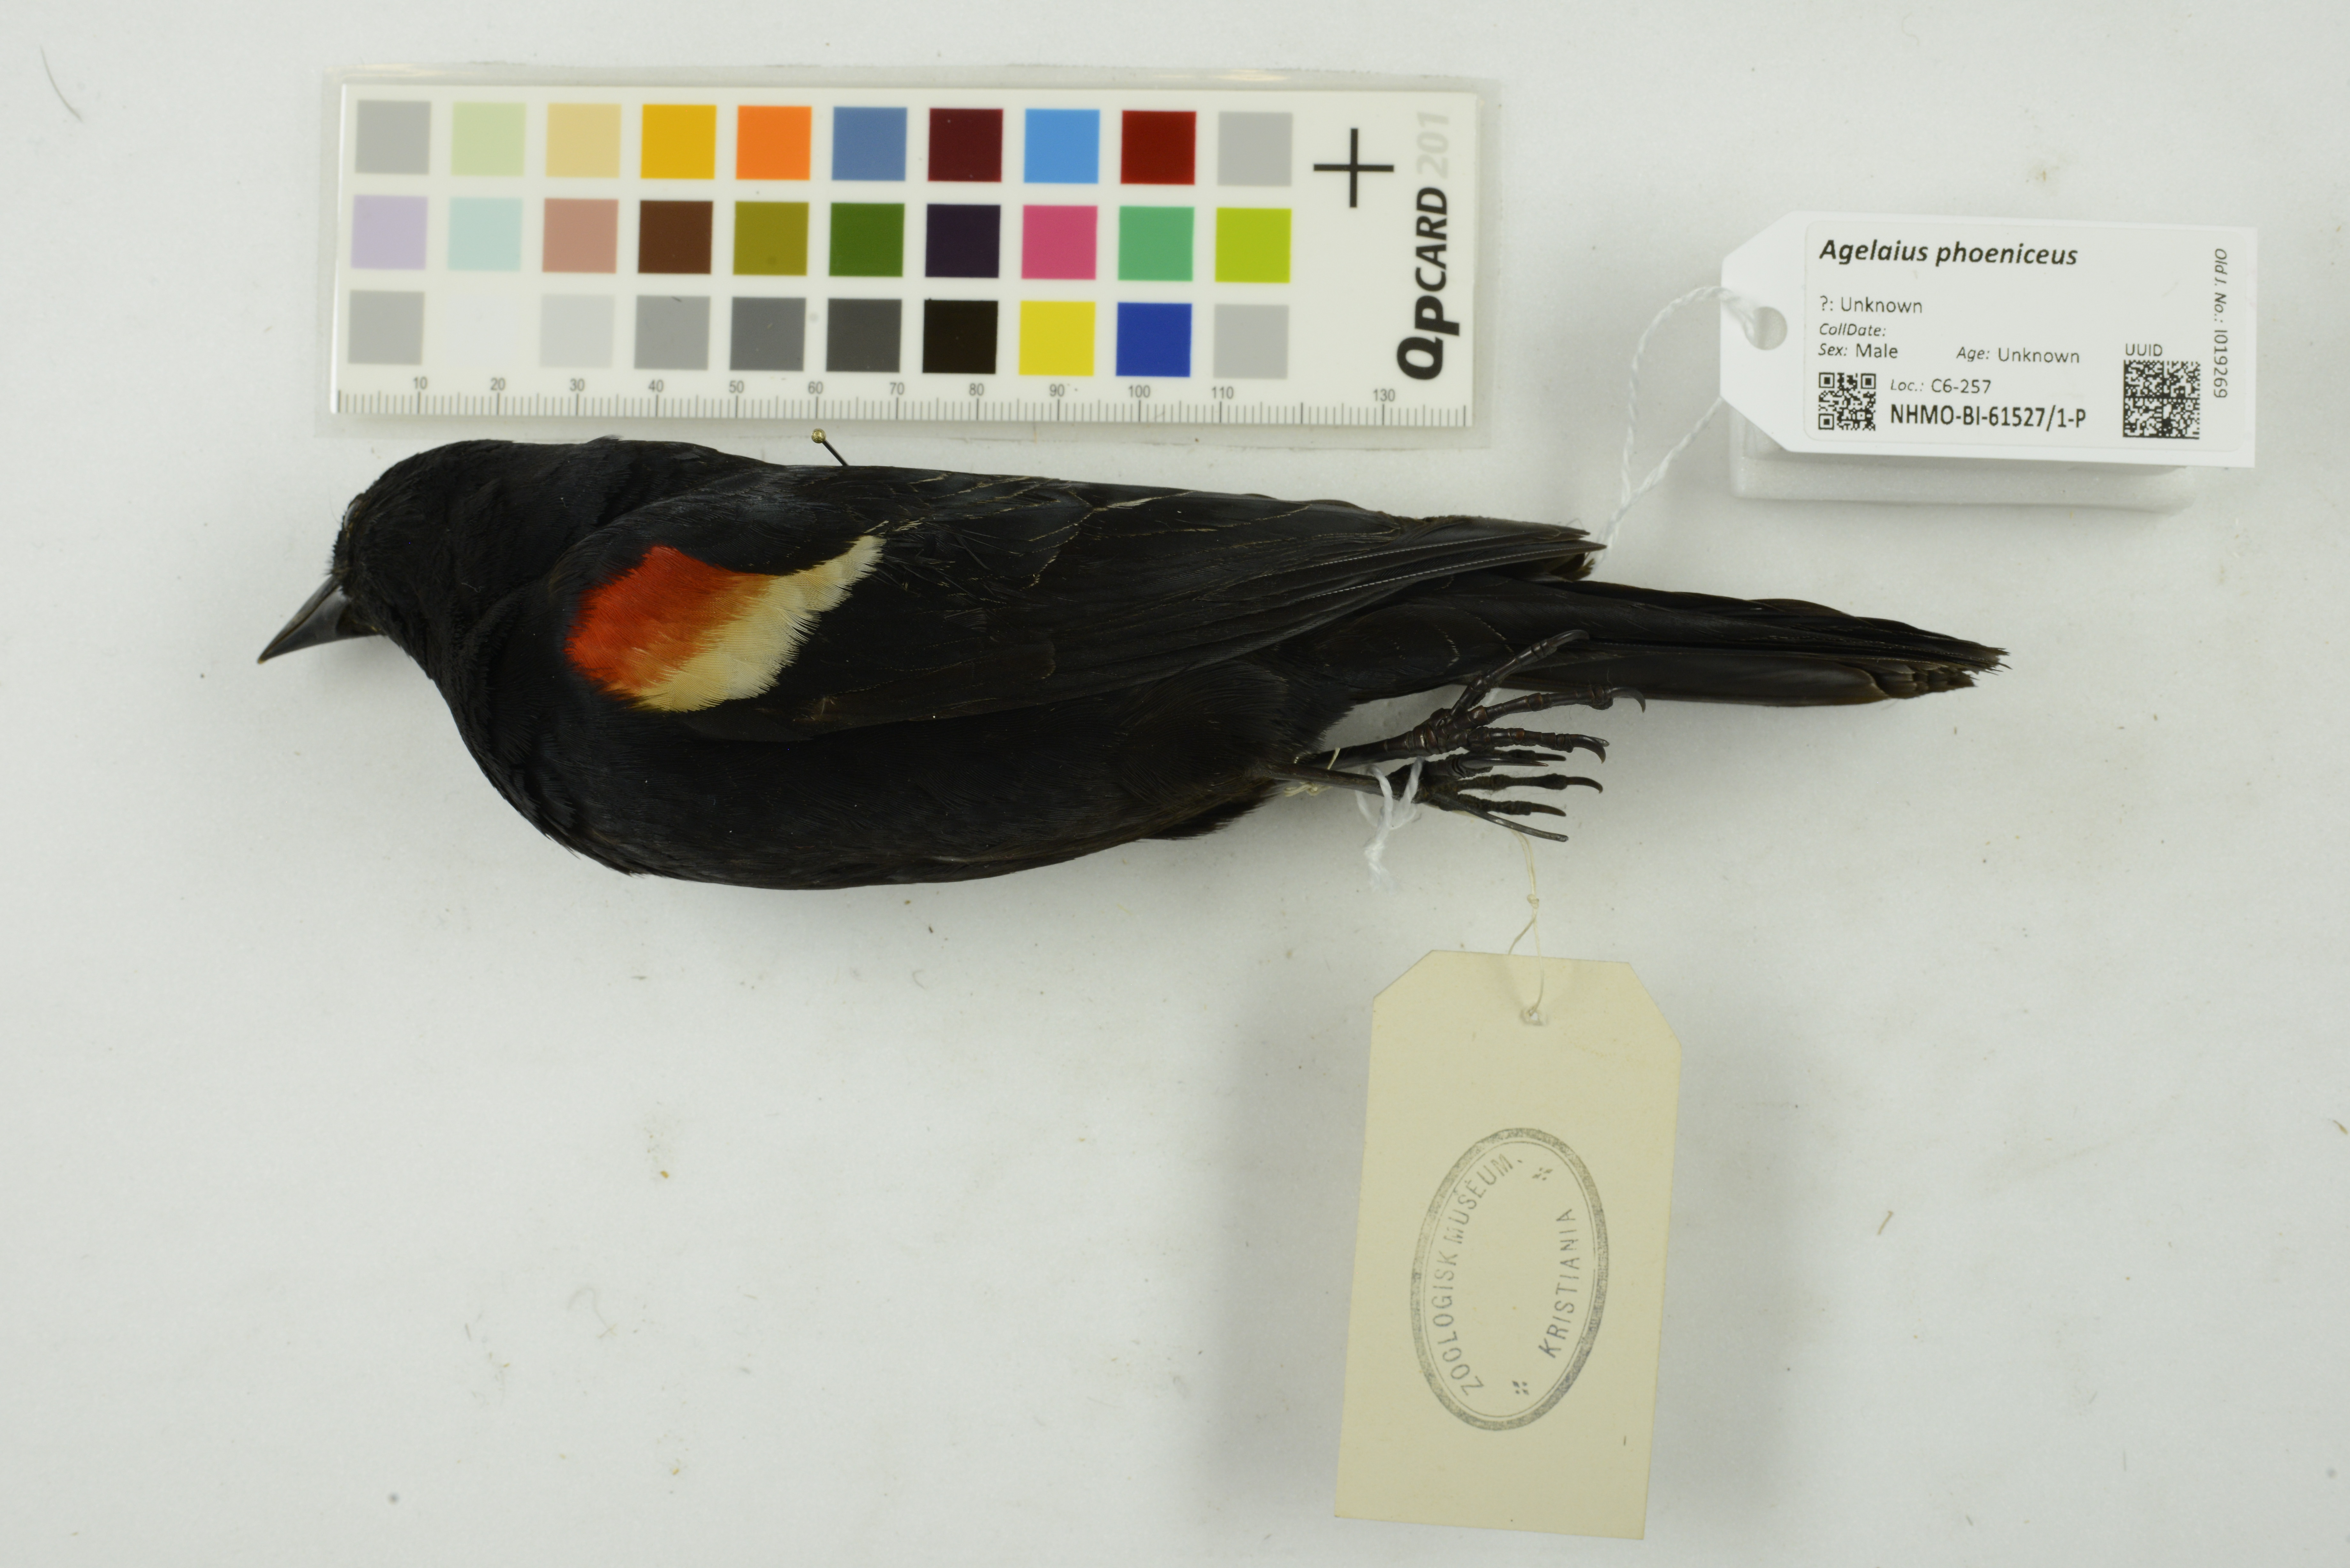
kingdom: Animalia
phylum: Chordata
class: Aves
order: Passeriformes
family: Icteridae
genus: Agelaius
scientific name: Agelaius phoeniceus
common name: Red-winged blackbird
